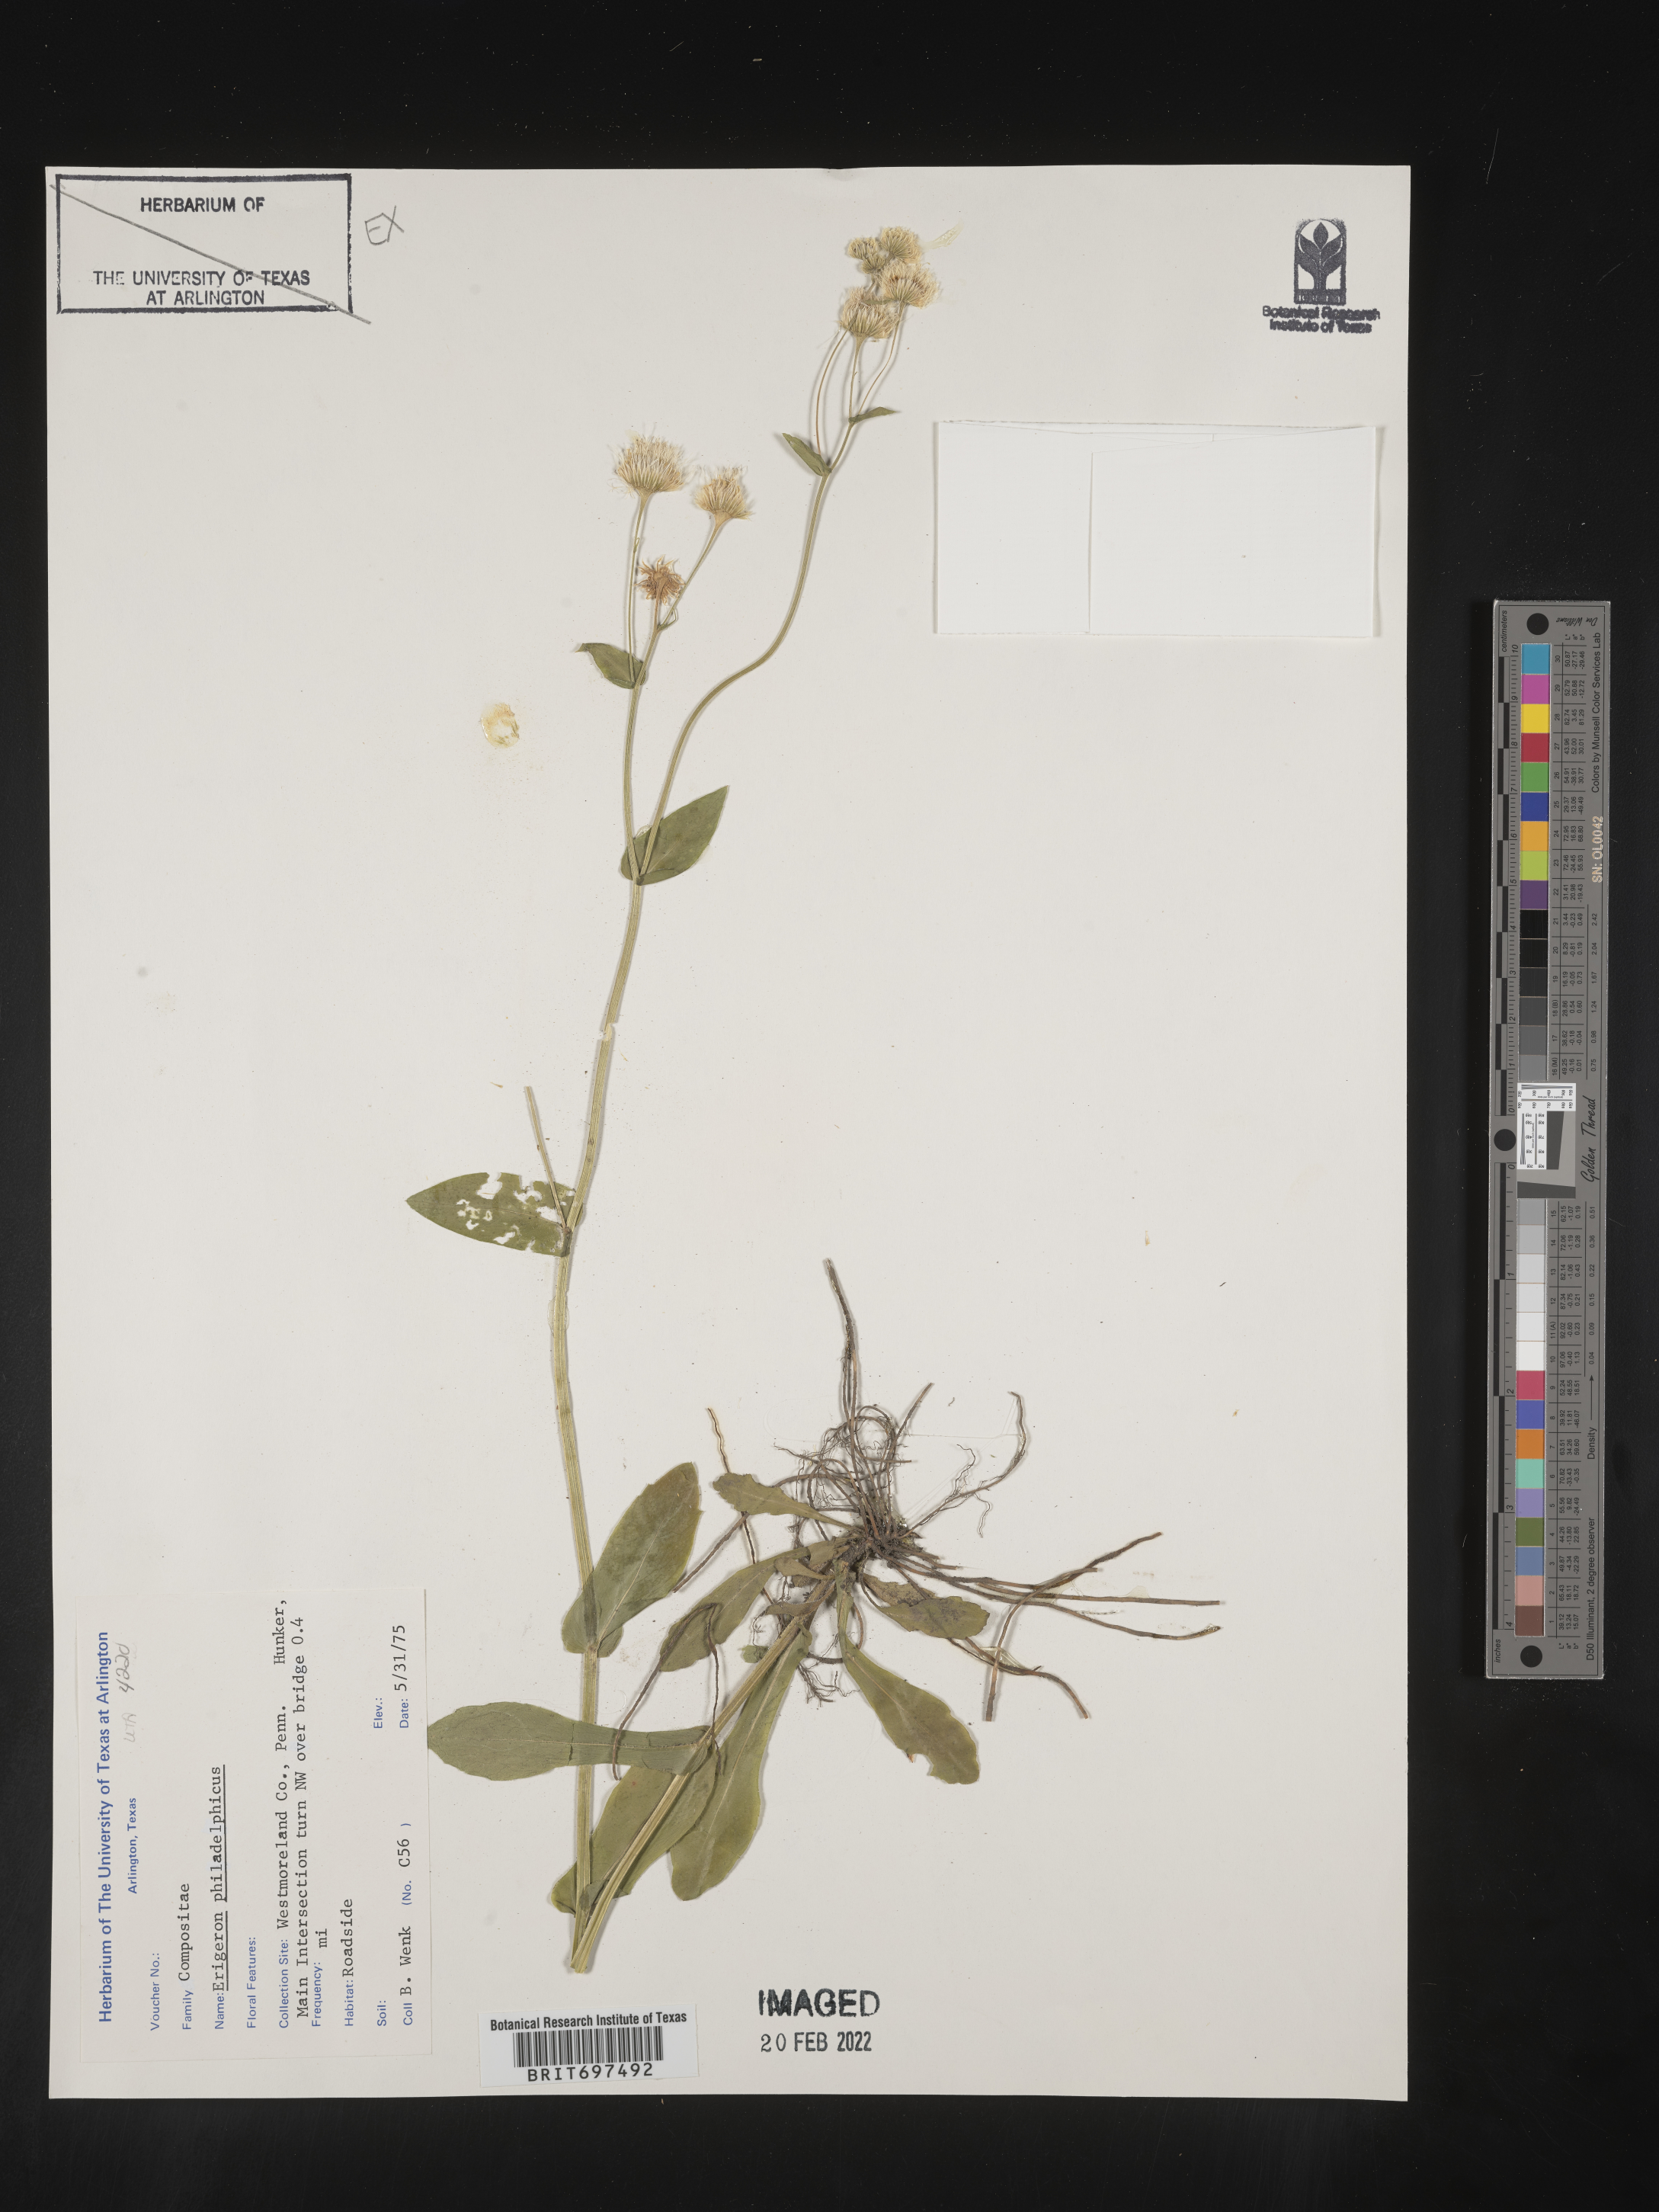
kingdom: Plantae
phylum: Tracheophyta
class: Magnoliopsida
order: Asterales
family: Asteraceae
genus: Erigeron
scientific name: Erigeron philadelphicus
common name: Robin's-plantain
